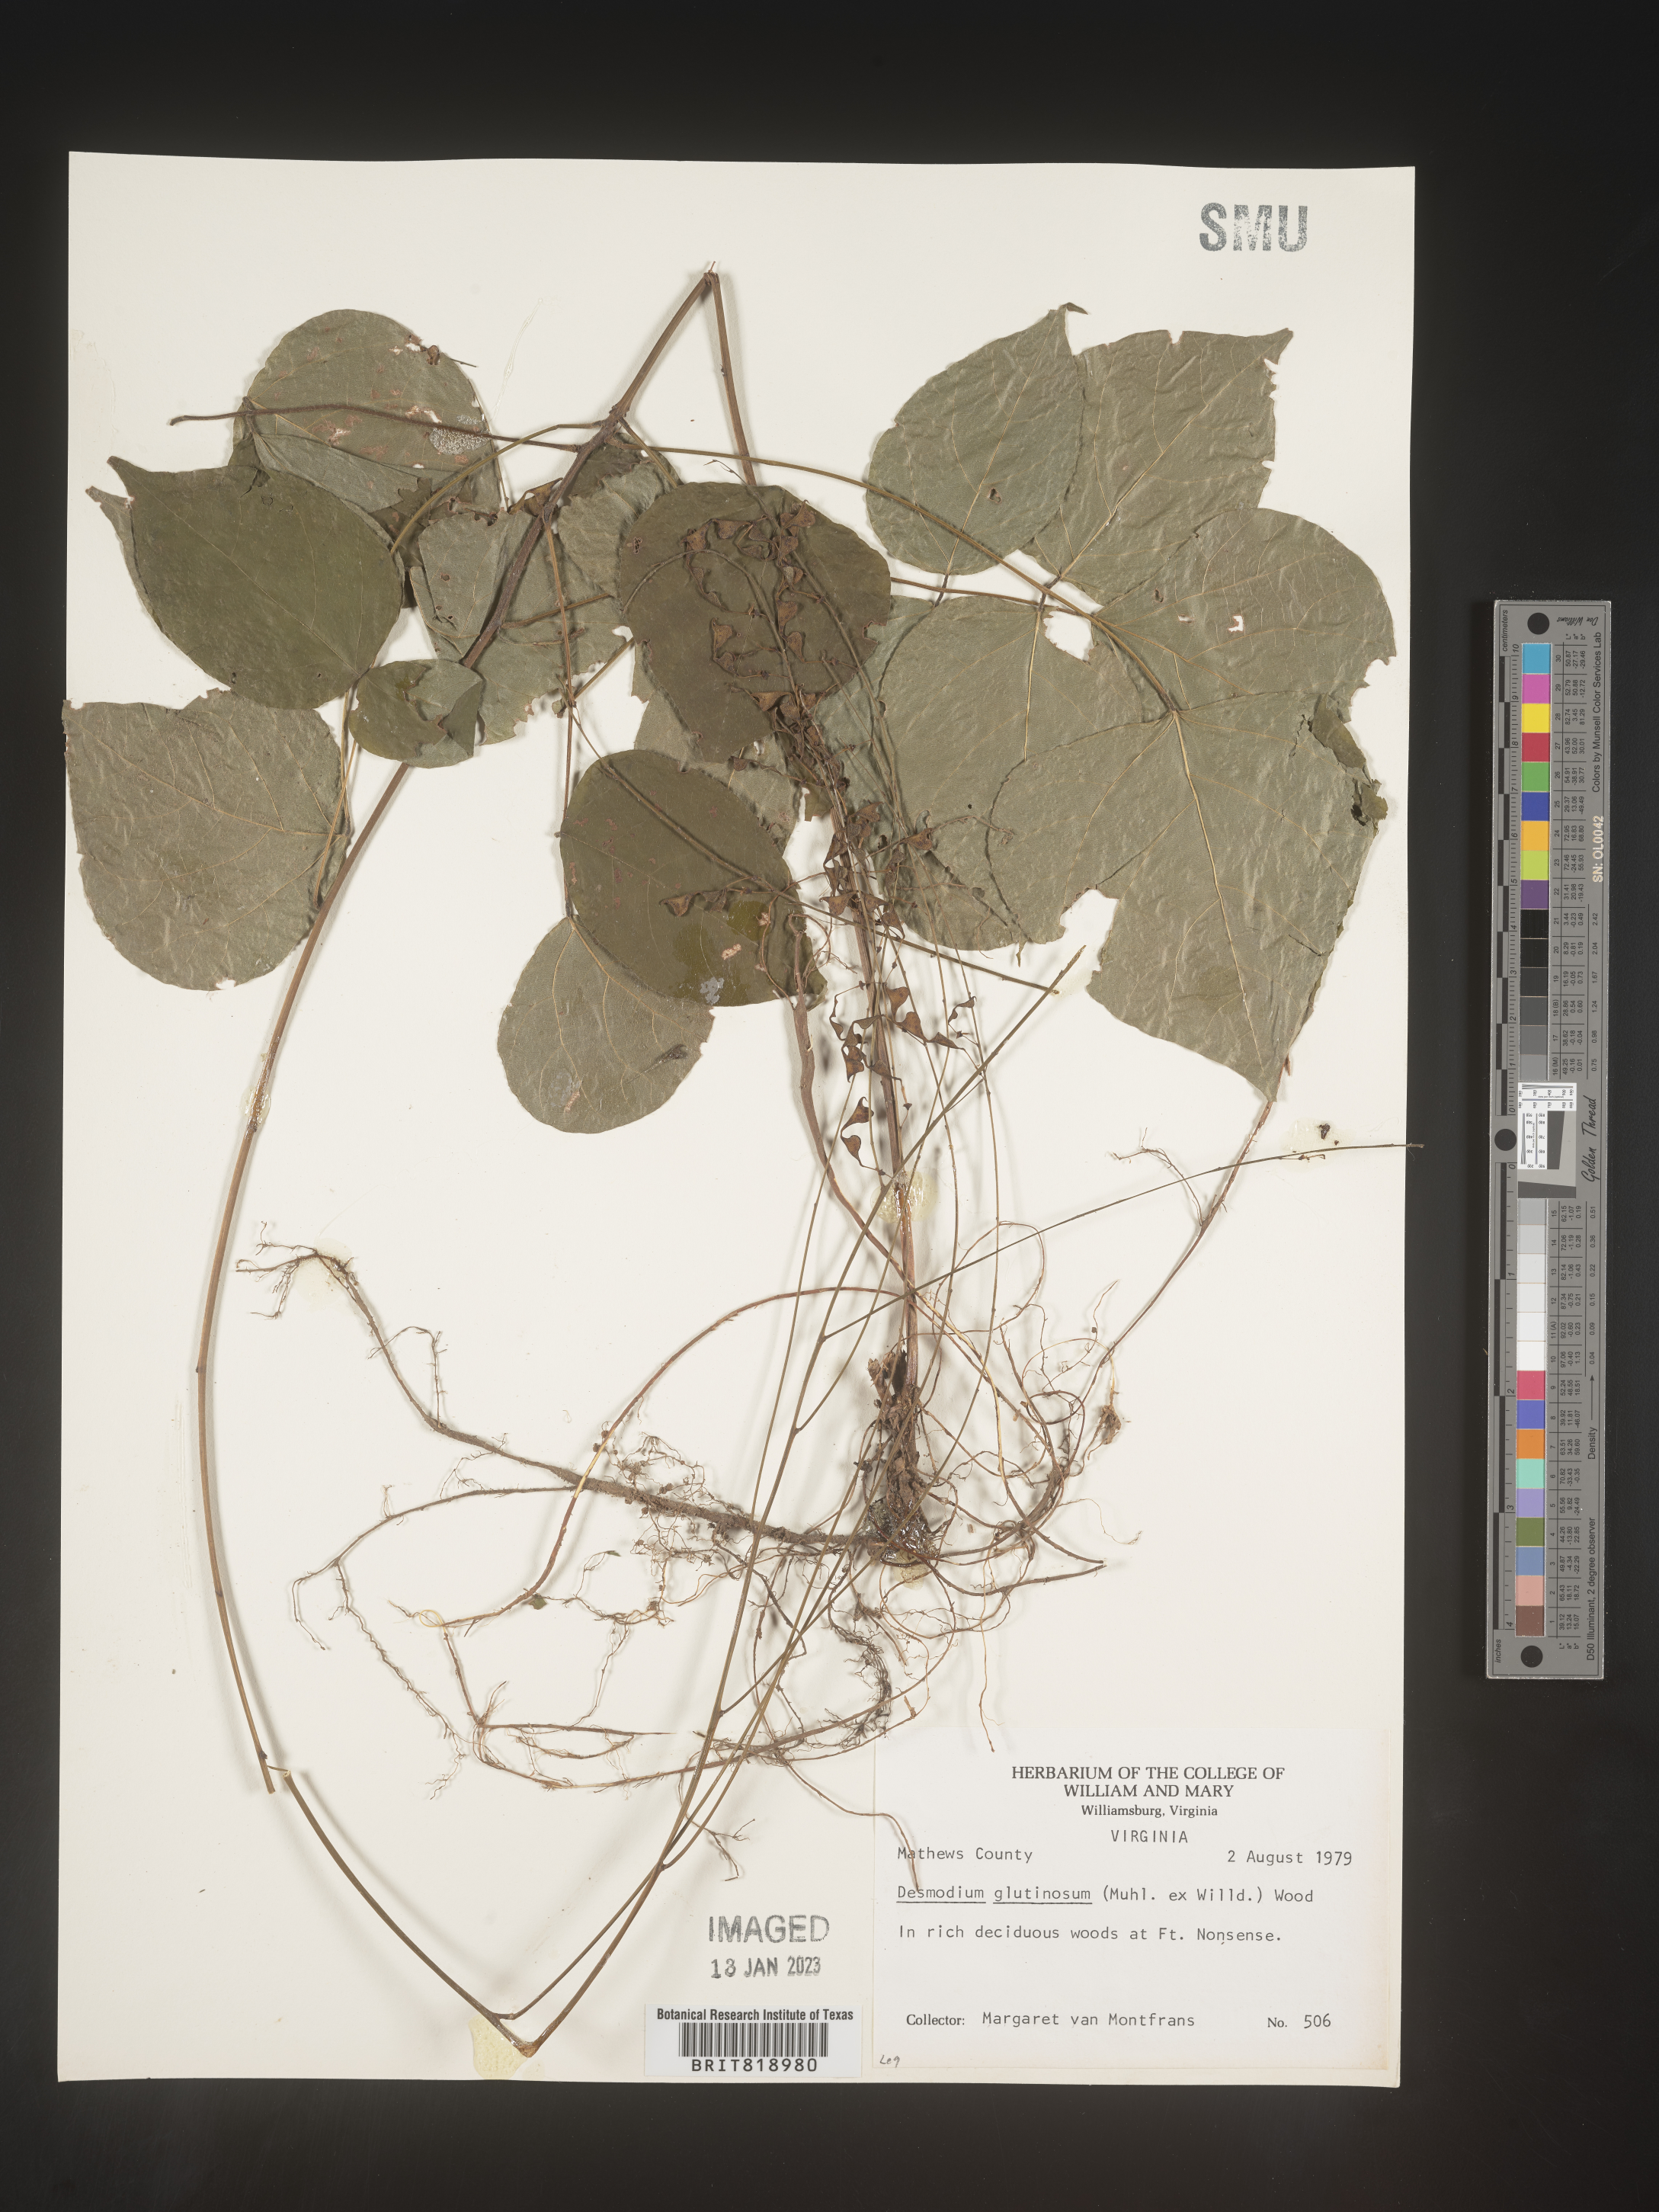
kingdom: Plantae
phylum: Tracheophyta
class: Magnoliopsida
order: Fabales
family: Fabaceae
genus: Hylodesmum
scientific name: Hylodesmum glutinosum
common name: Clustered-leaved tick-trefoil
